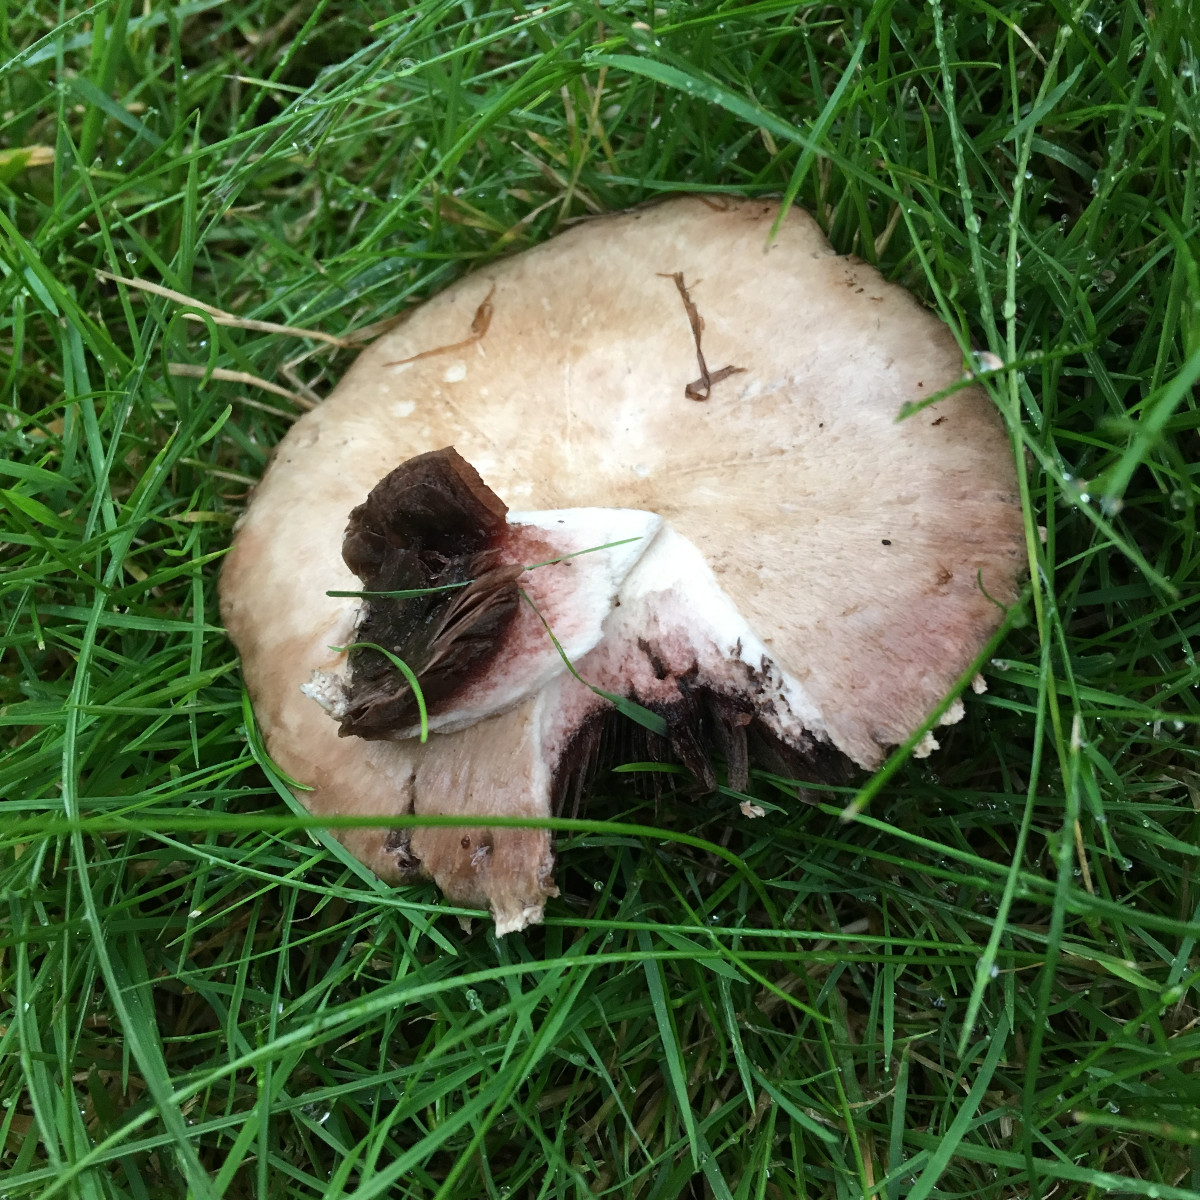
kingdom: Fungi
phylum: Basidiomycota
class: Agaricomycetes
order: Agaricales
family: Agaricaceae
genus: Agaricus
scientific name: Agaricus
